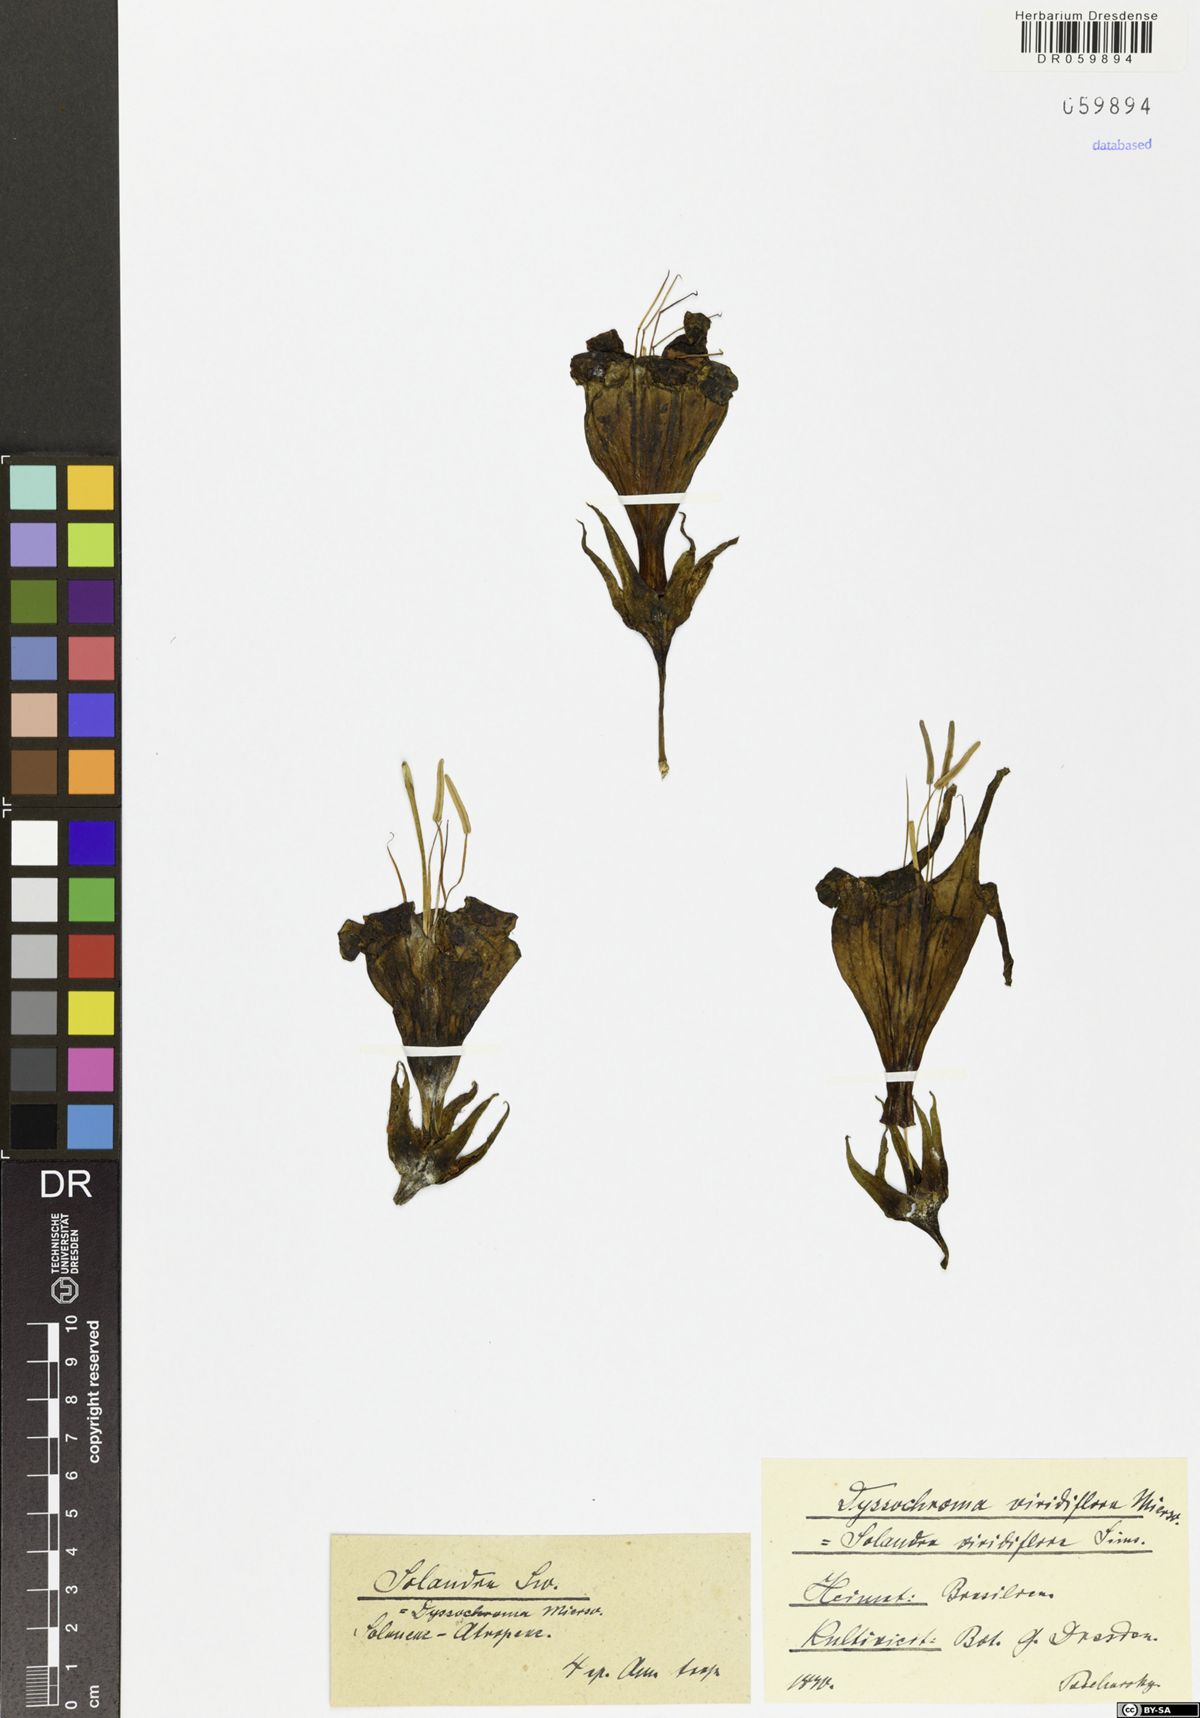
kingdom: Plantae
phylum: Tracheophyta
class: Magnoliopsida
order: Solanales
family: Solanaceae
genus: Dyssochroma
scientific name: Dyssochroma viridiflorum
